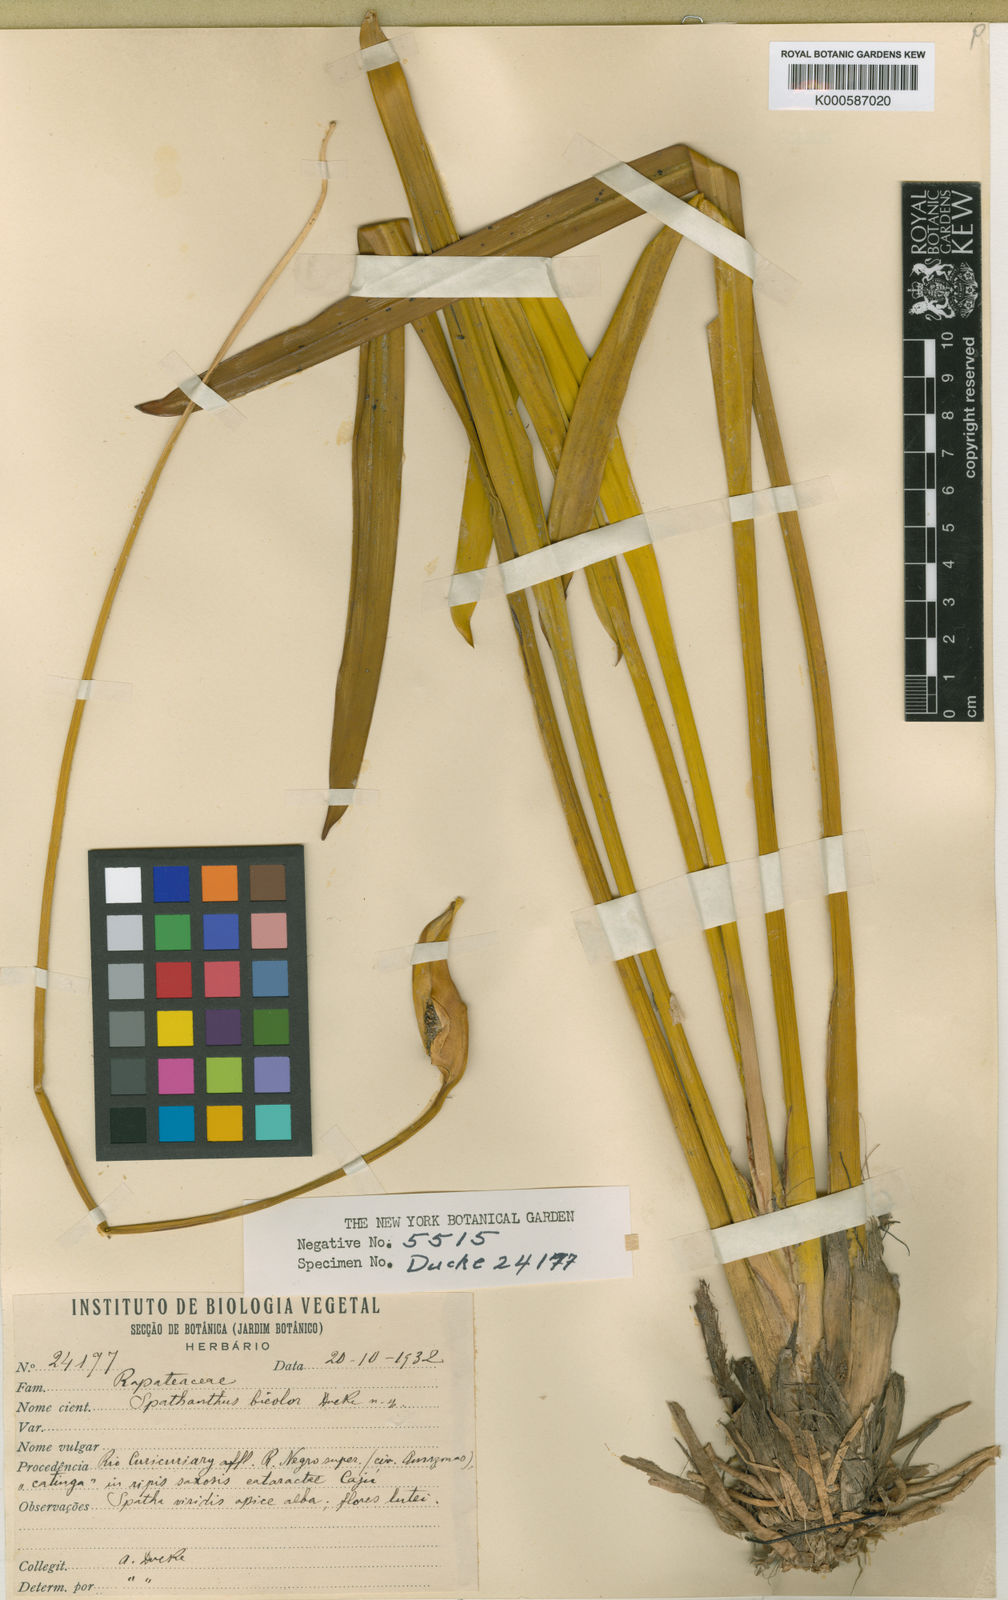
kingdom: Plantae
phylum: Tracheophyta
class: Liliopsida
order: Poales
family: Rapateaceae
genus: Spathanthus
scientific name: Spathanthus bicolor
